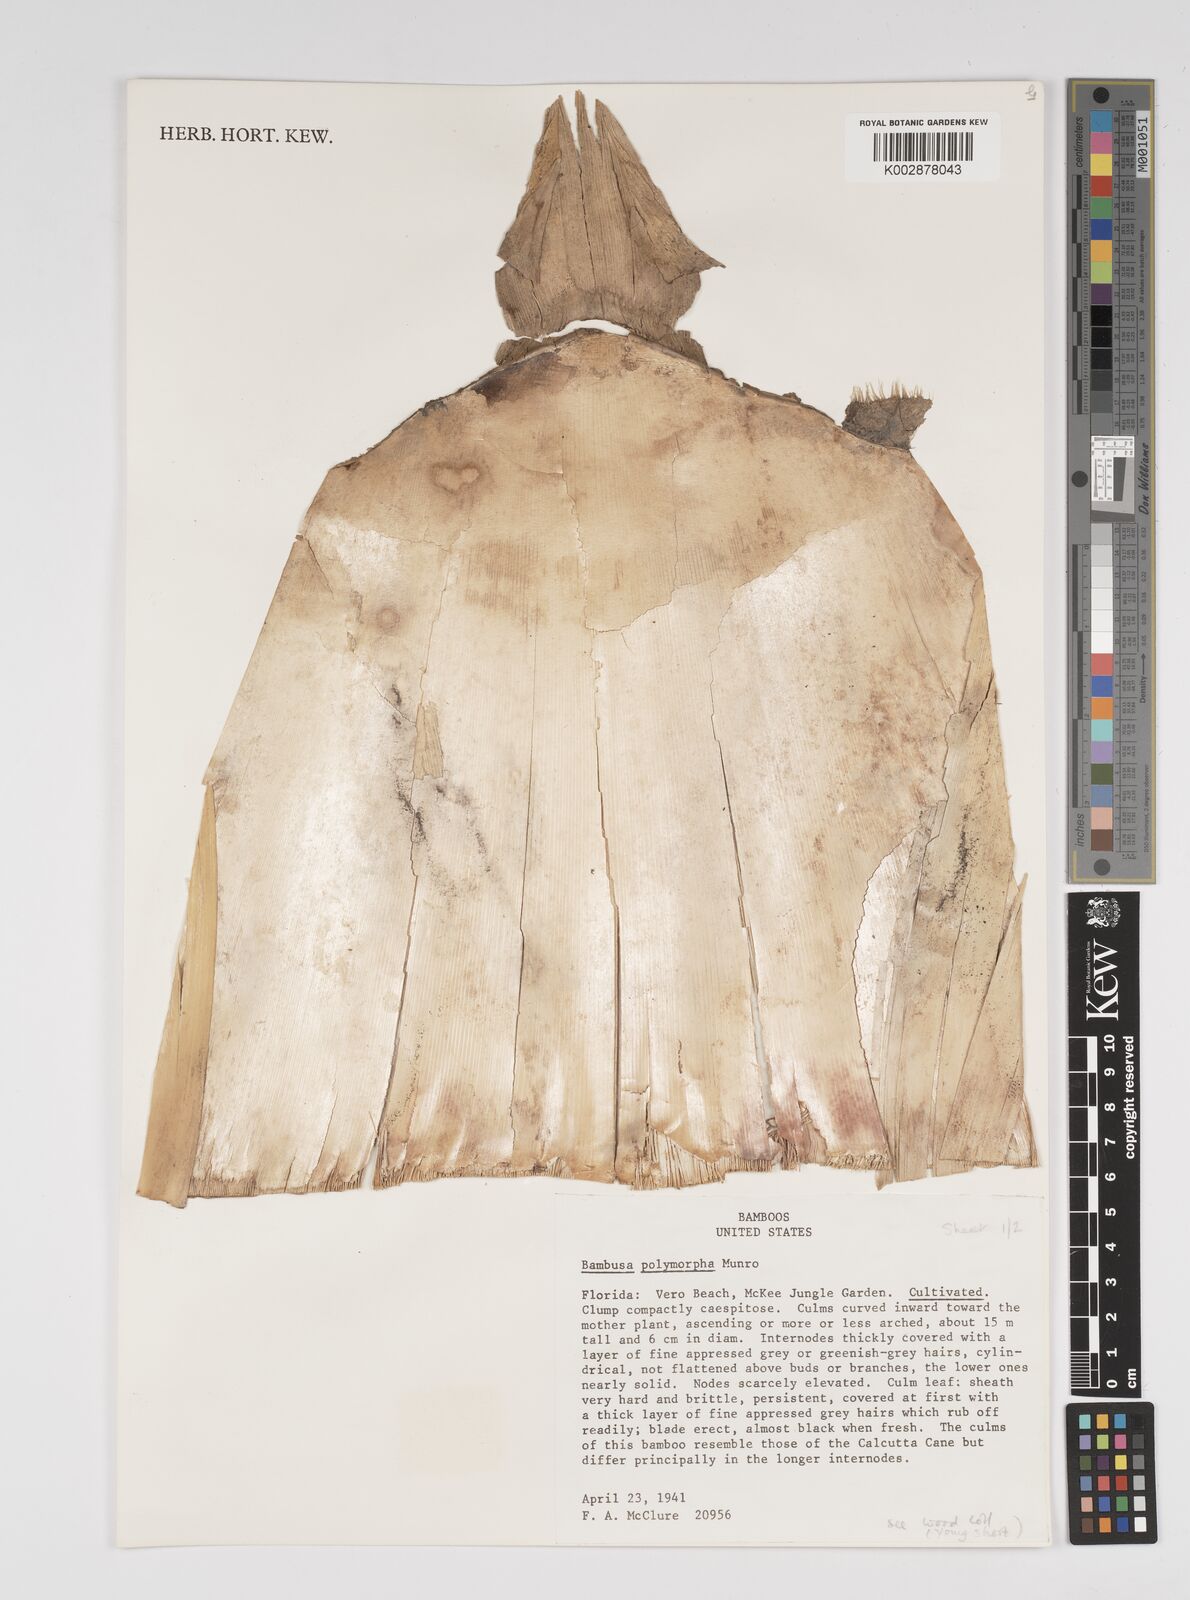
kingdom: Plantae
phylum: Tracheophyta
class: Liliopsida
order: Poales
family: Poaceae
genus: Bambusa
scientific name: Bambusa polymorpha
